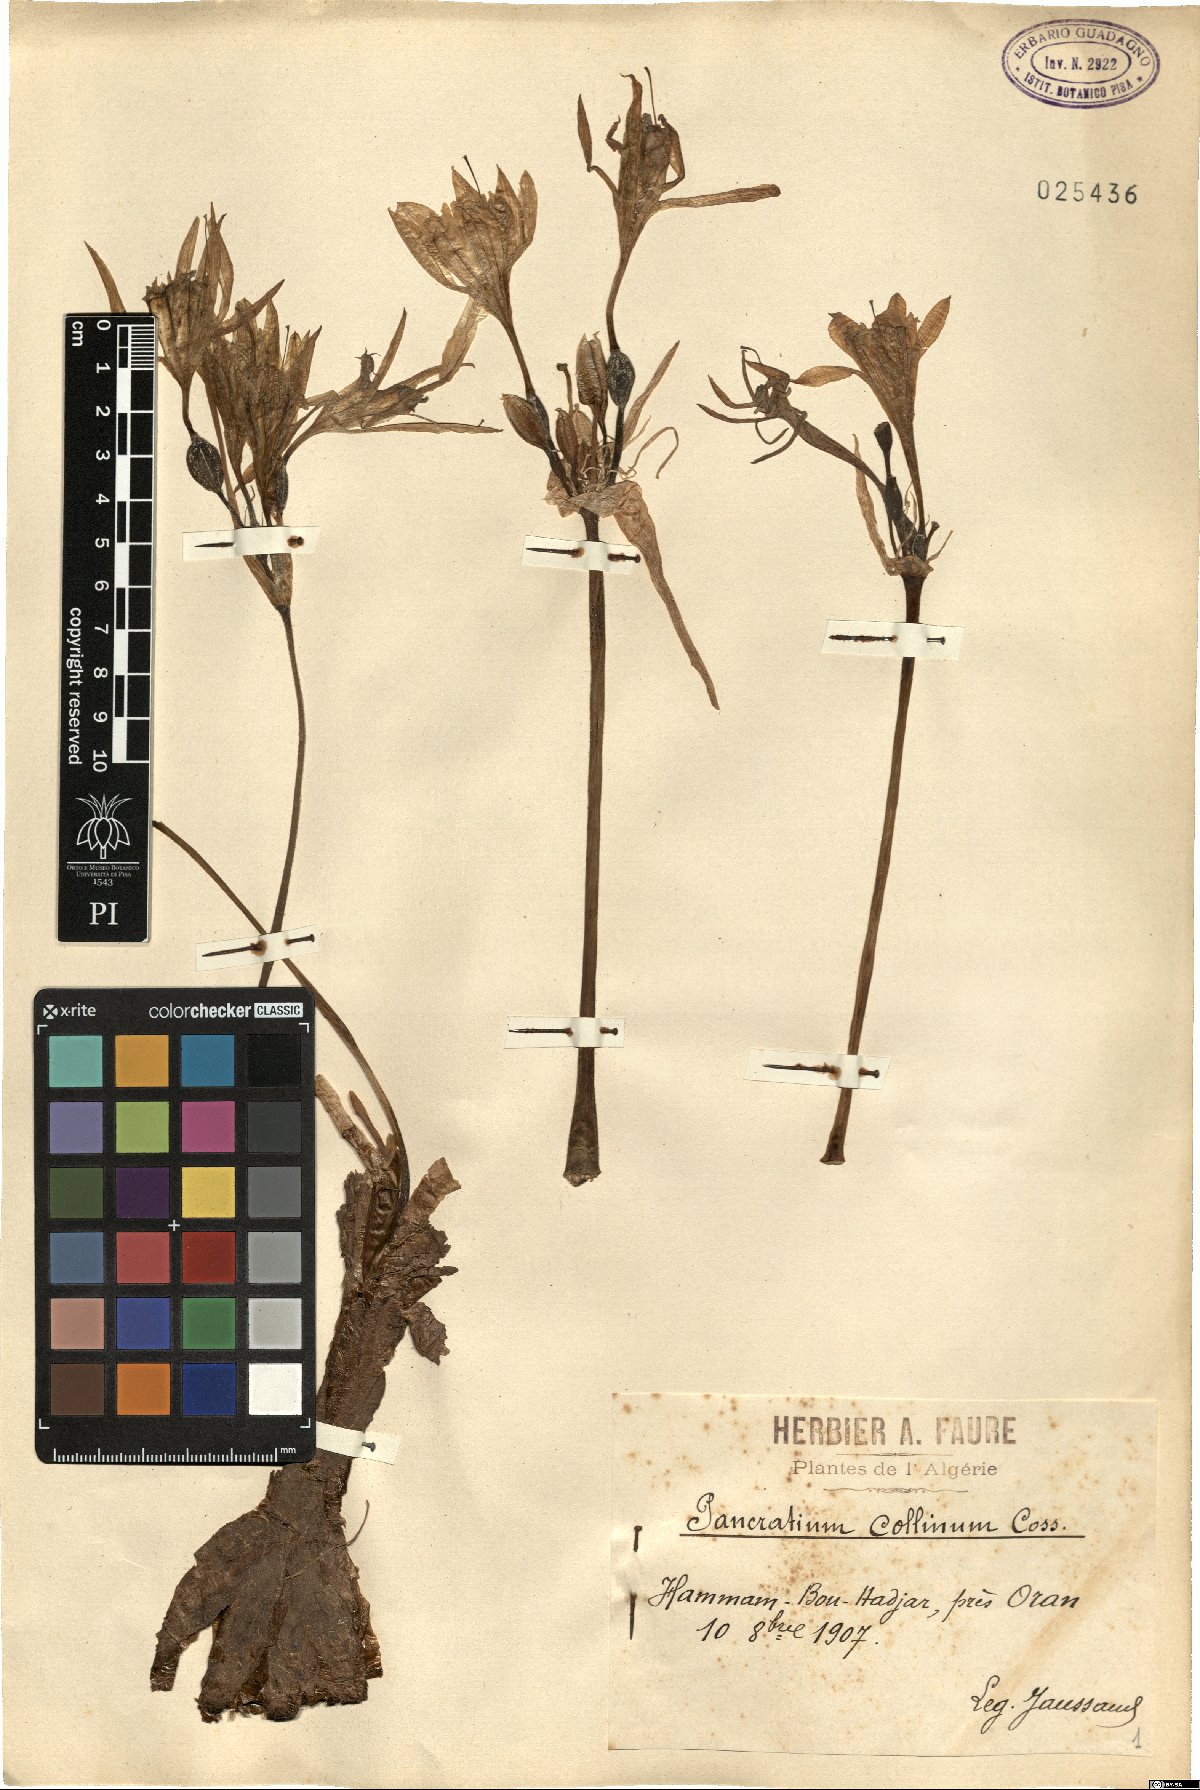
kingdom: Plantae
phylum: Tracheophyta
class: Liliopsida
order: Asparagales
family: Amaryllidaceae
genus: Pancratium
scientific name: Pancratium foetidum
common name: Stinking daffodil
